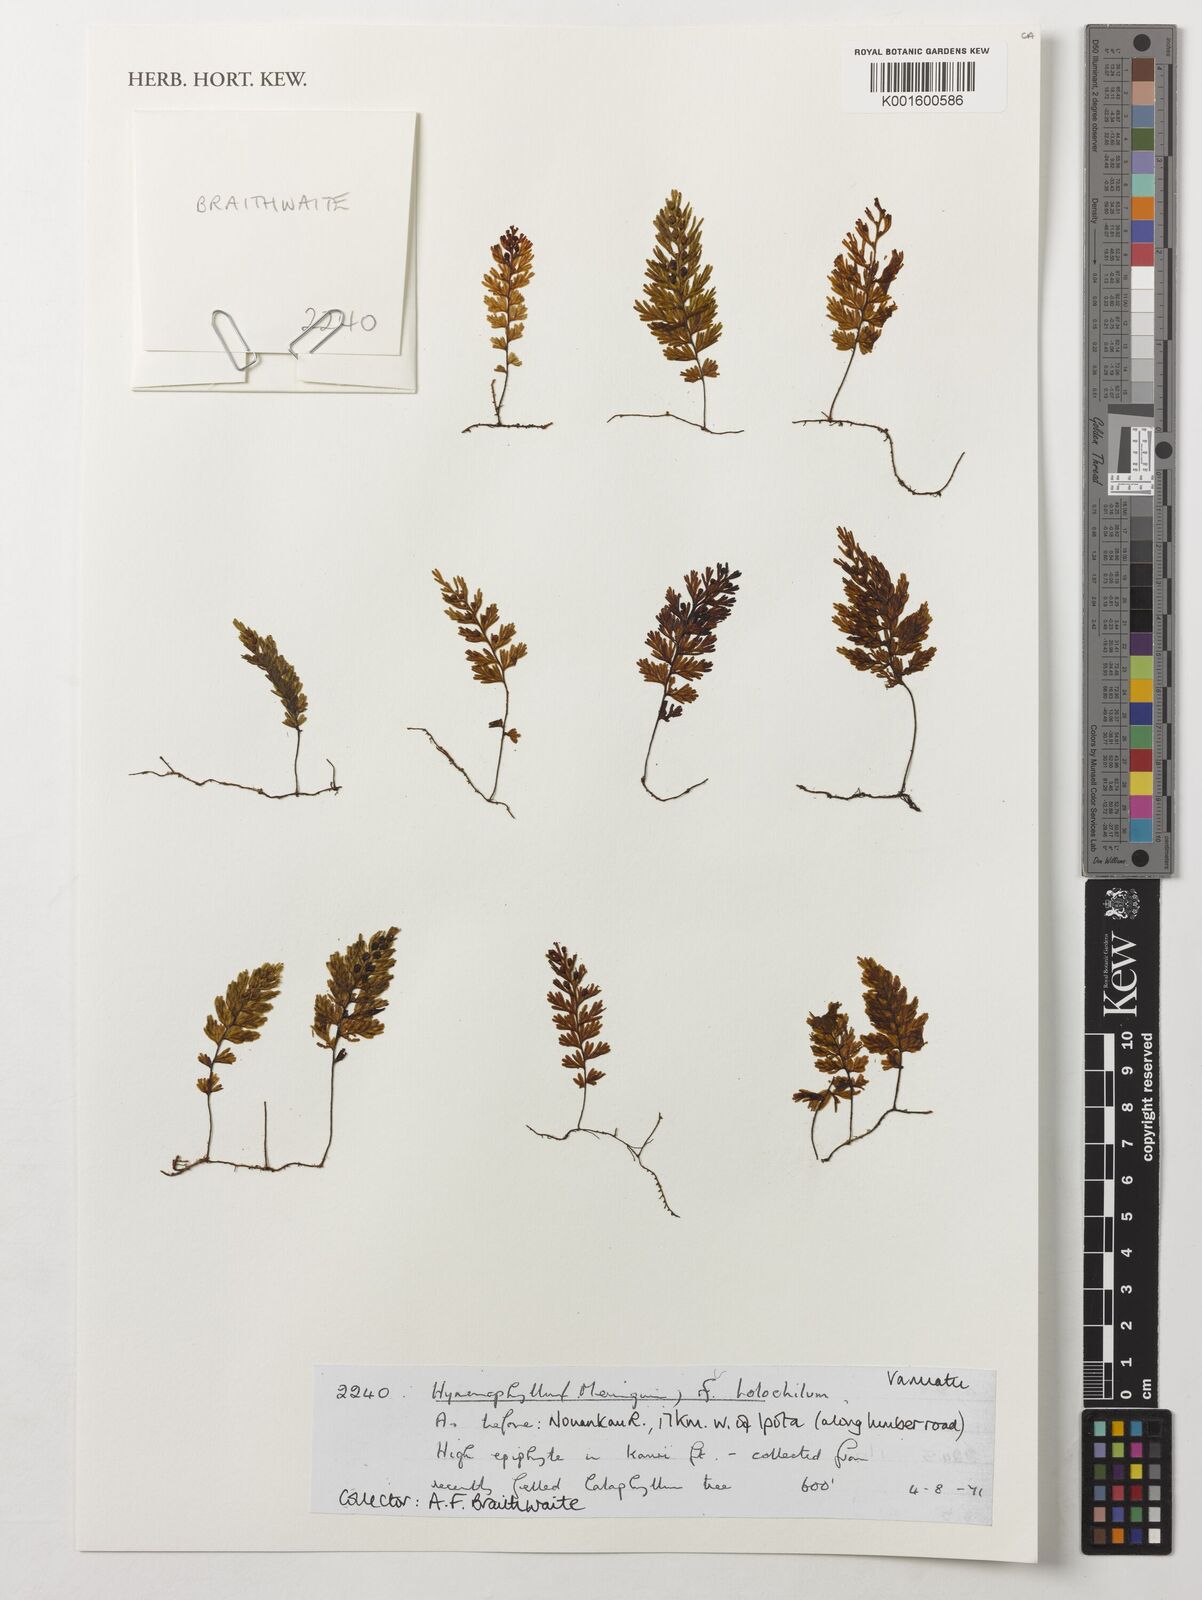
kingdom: Plantae
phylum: Tracheophyta
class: Polypodiopsida
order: Hymenophyllales
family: Hymenophyllaceae
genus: Hymenophyllum
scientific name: Hymenophyllum holochilum
